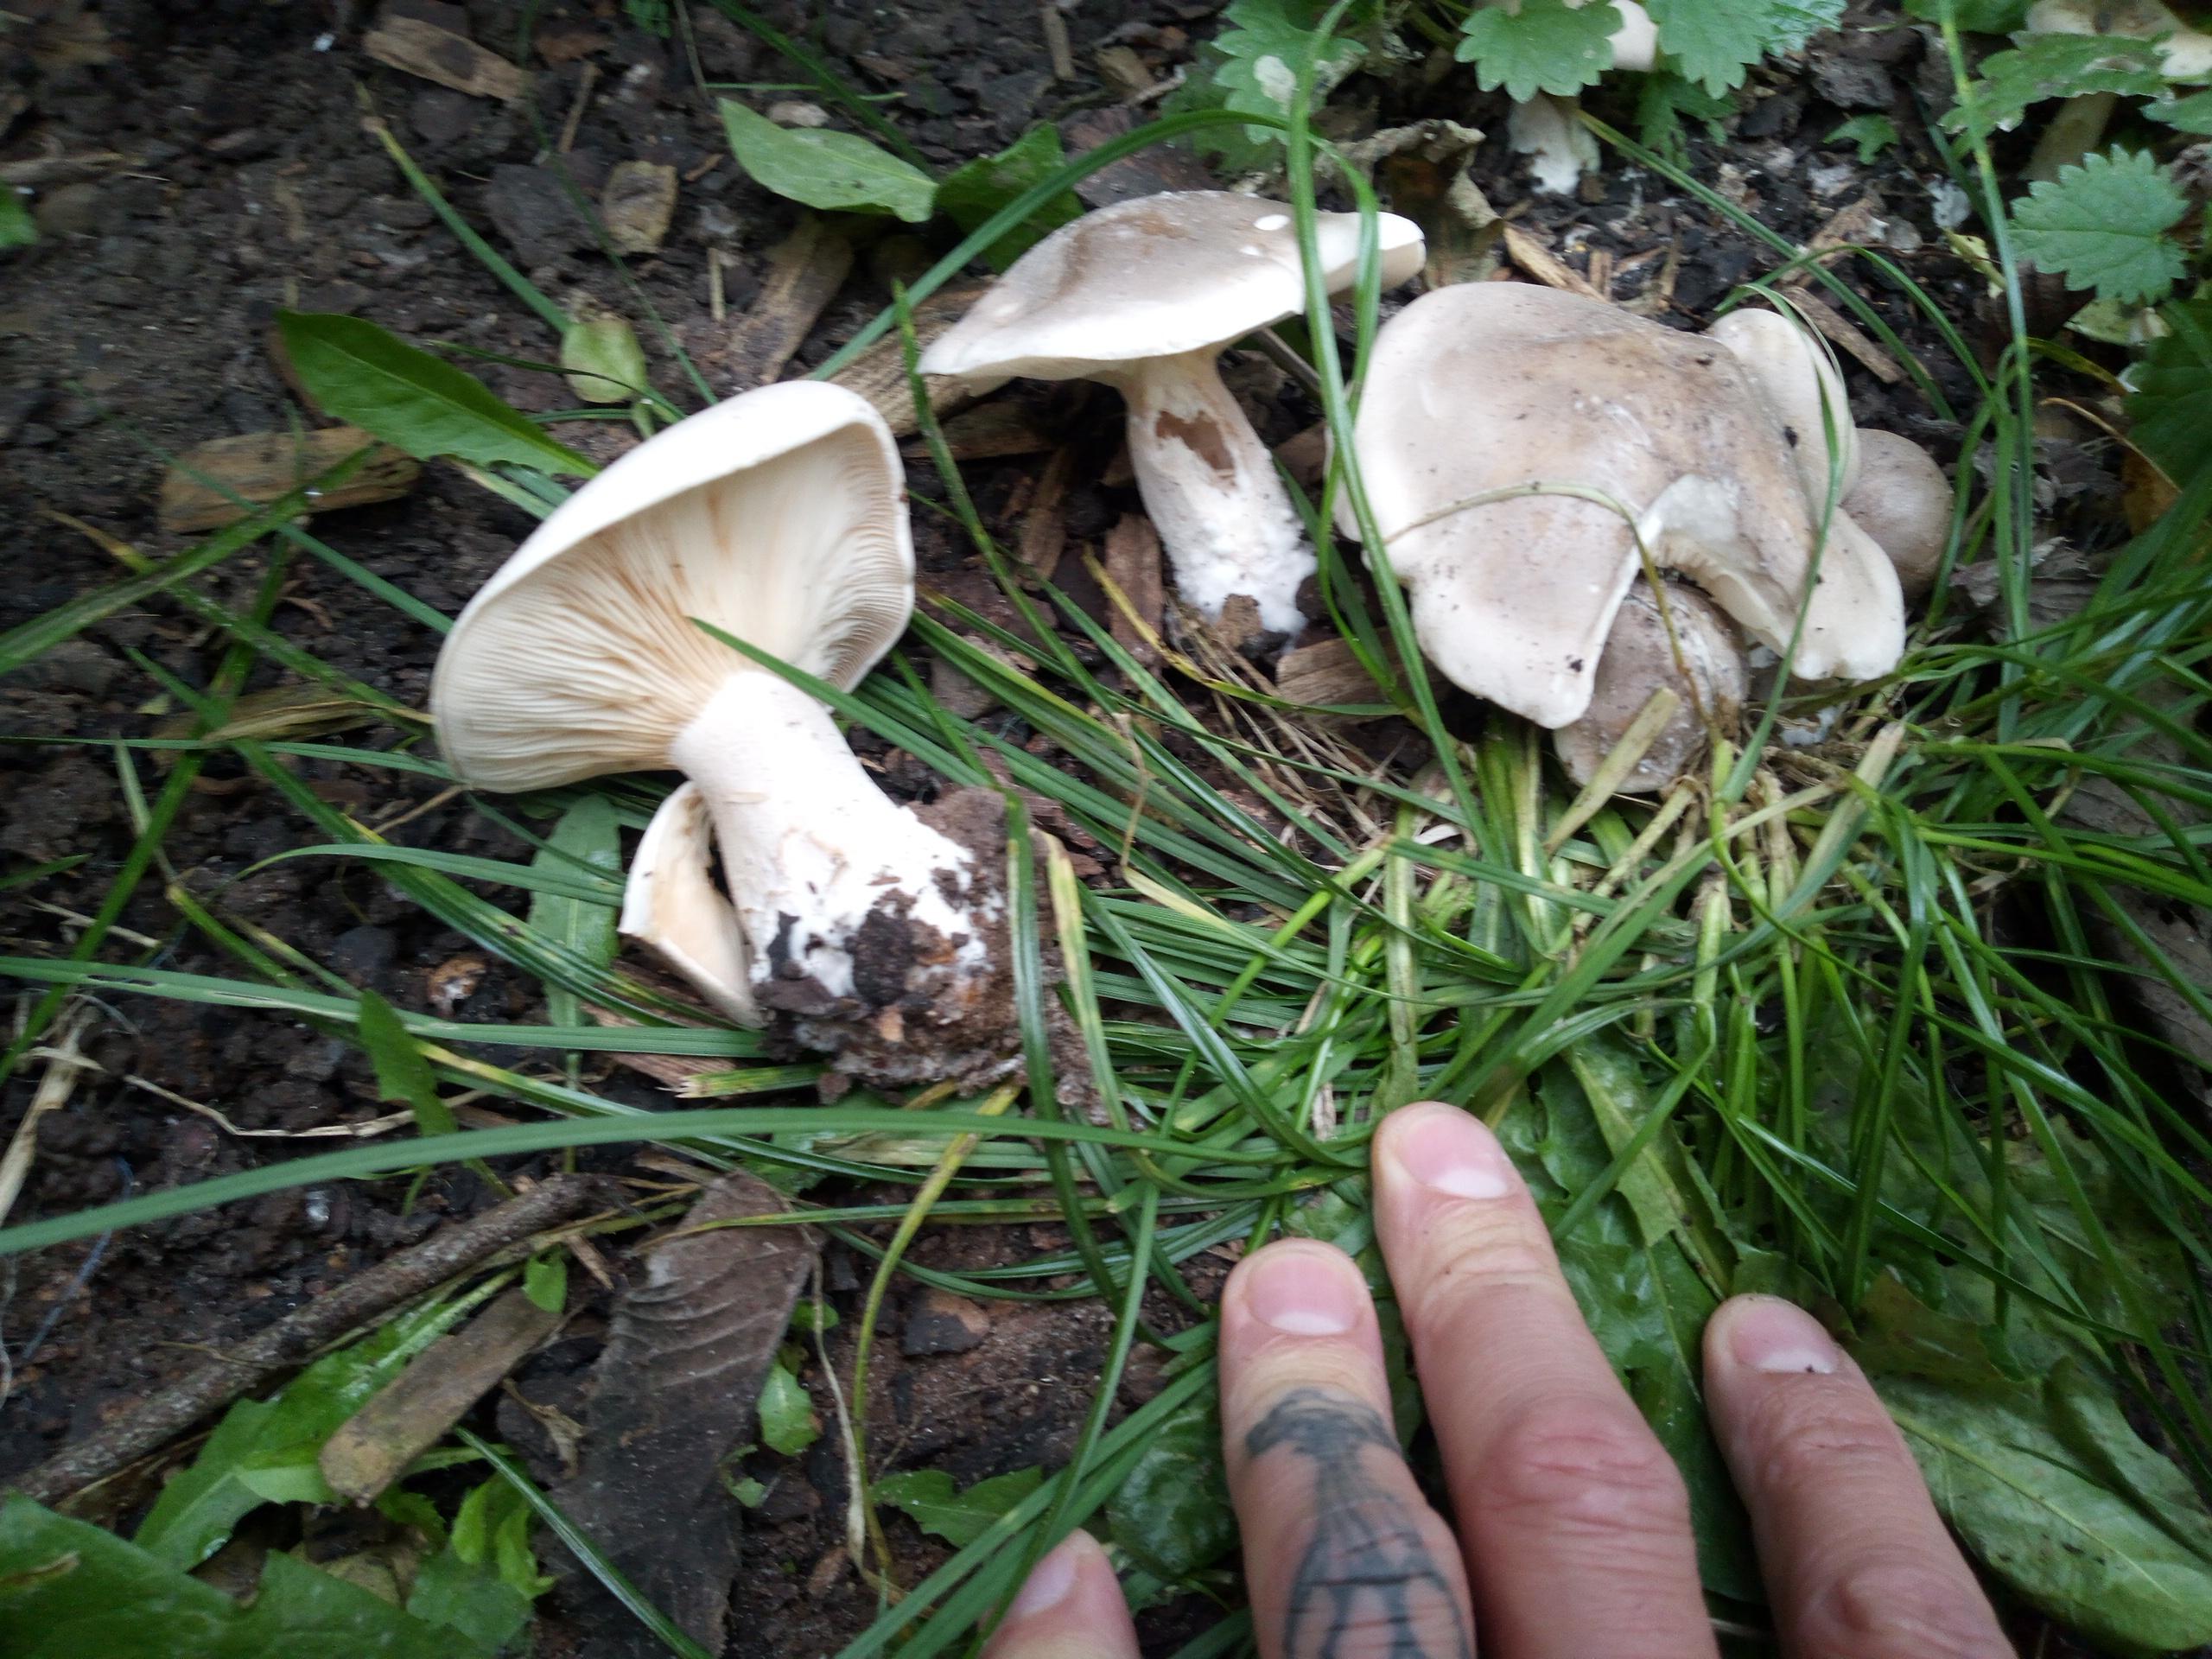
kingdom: Fungi
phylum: Basidiomycota
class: Agaricomycetes
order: Agaricales
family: Tricholomataceae
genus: Clitocybe
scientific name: Clitocybe nebularis
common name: tåge-tragthat
